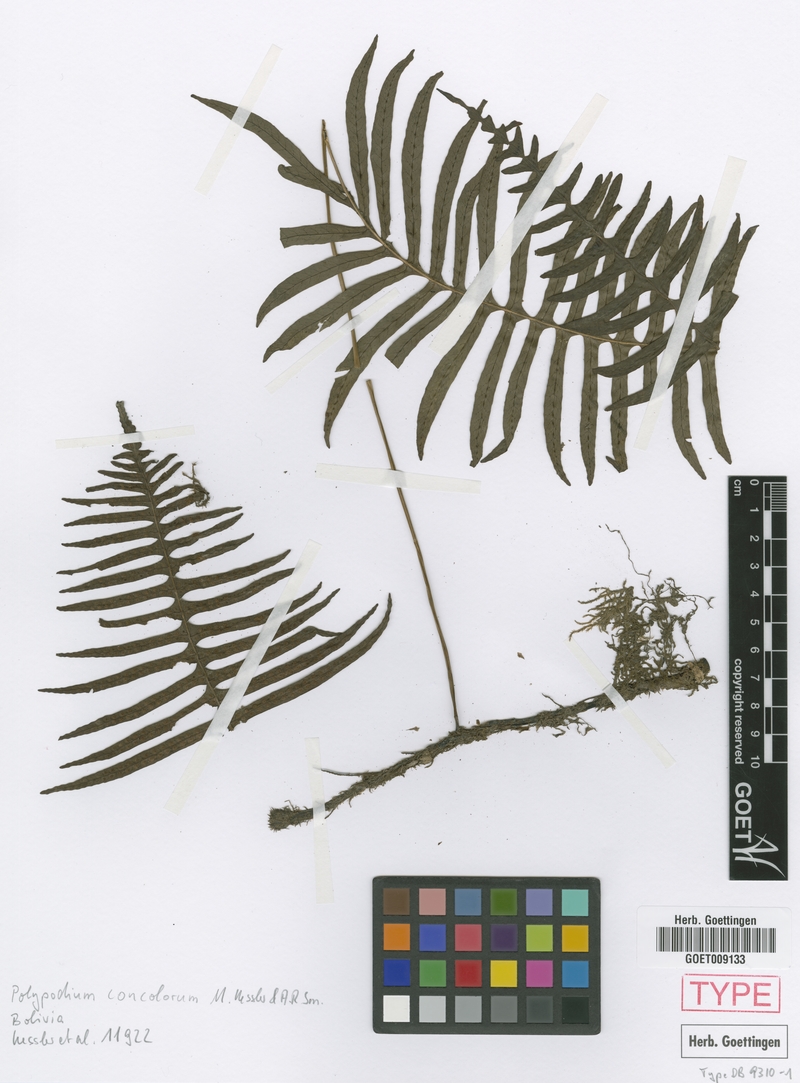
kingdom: Plantae
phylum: Tracheophyta
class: Polypodiopsida
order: Polypodiales
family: Polypodiaceae
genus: Serpocaulon
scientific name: Serpocaulon concolorum
